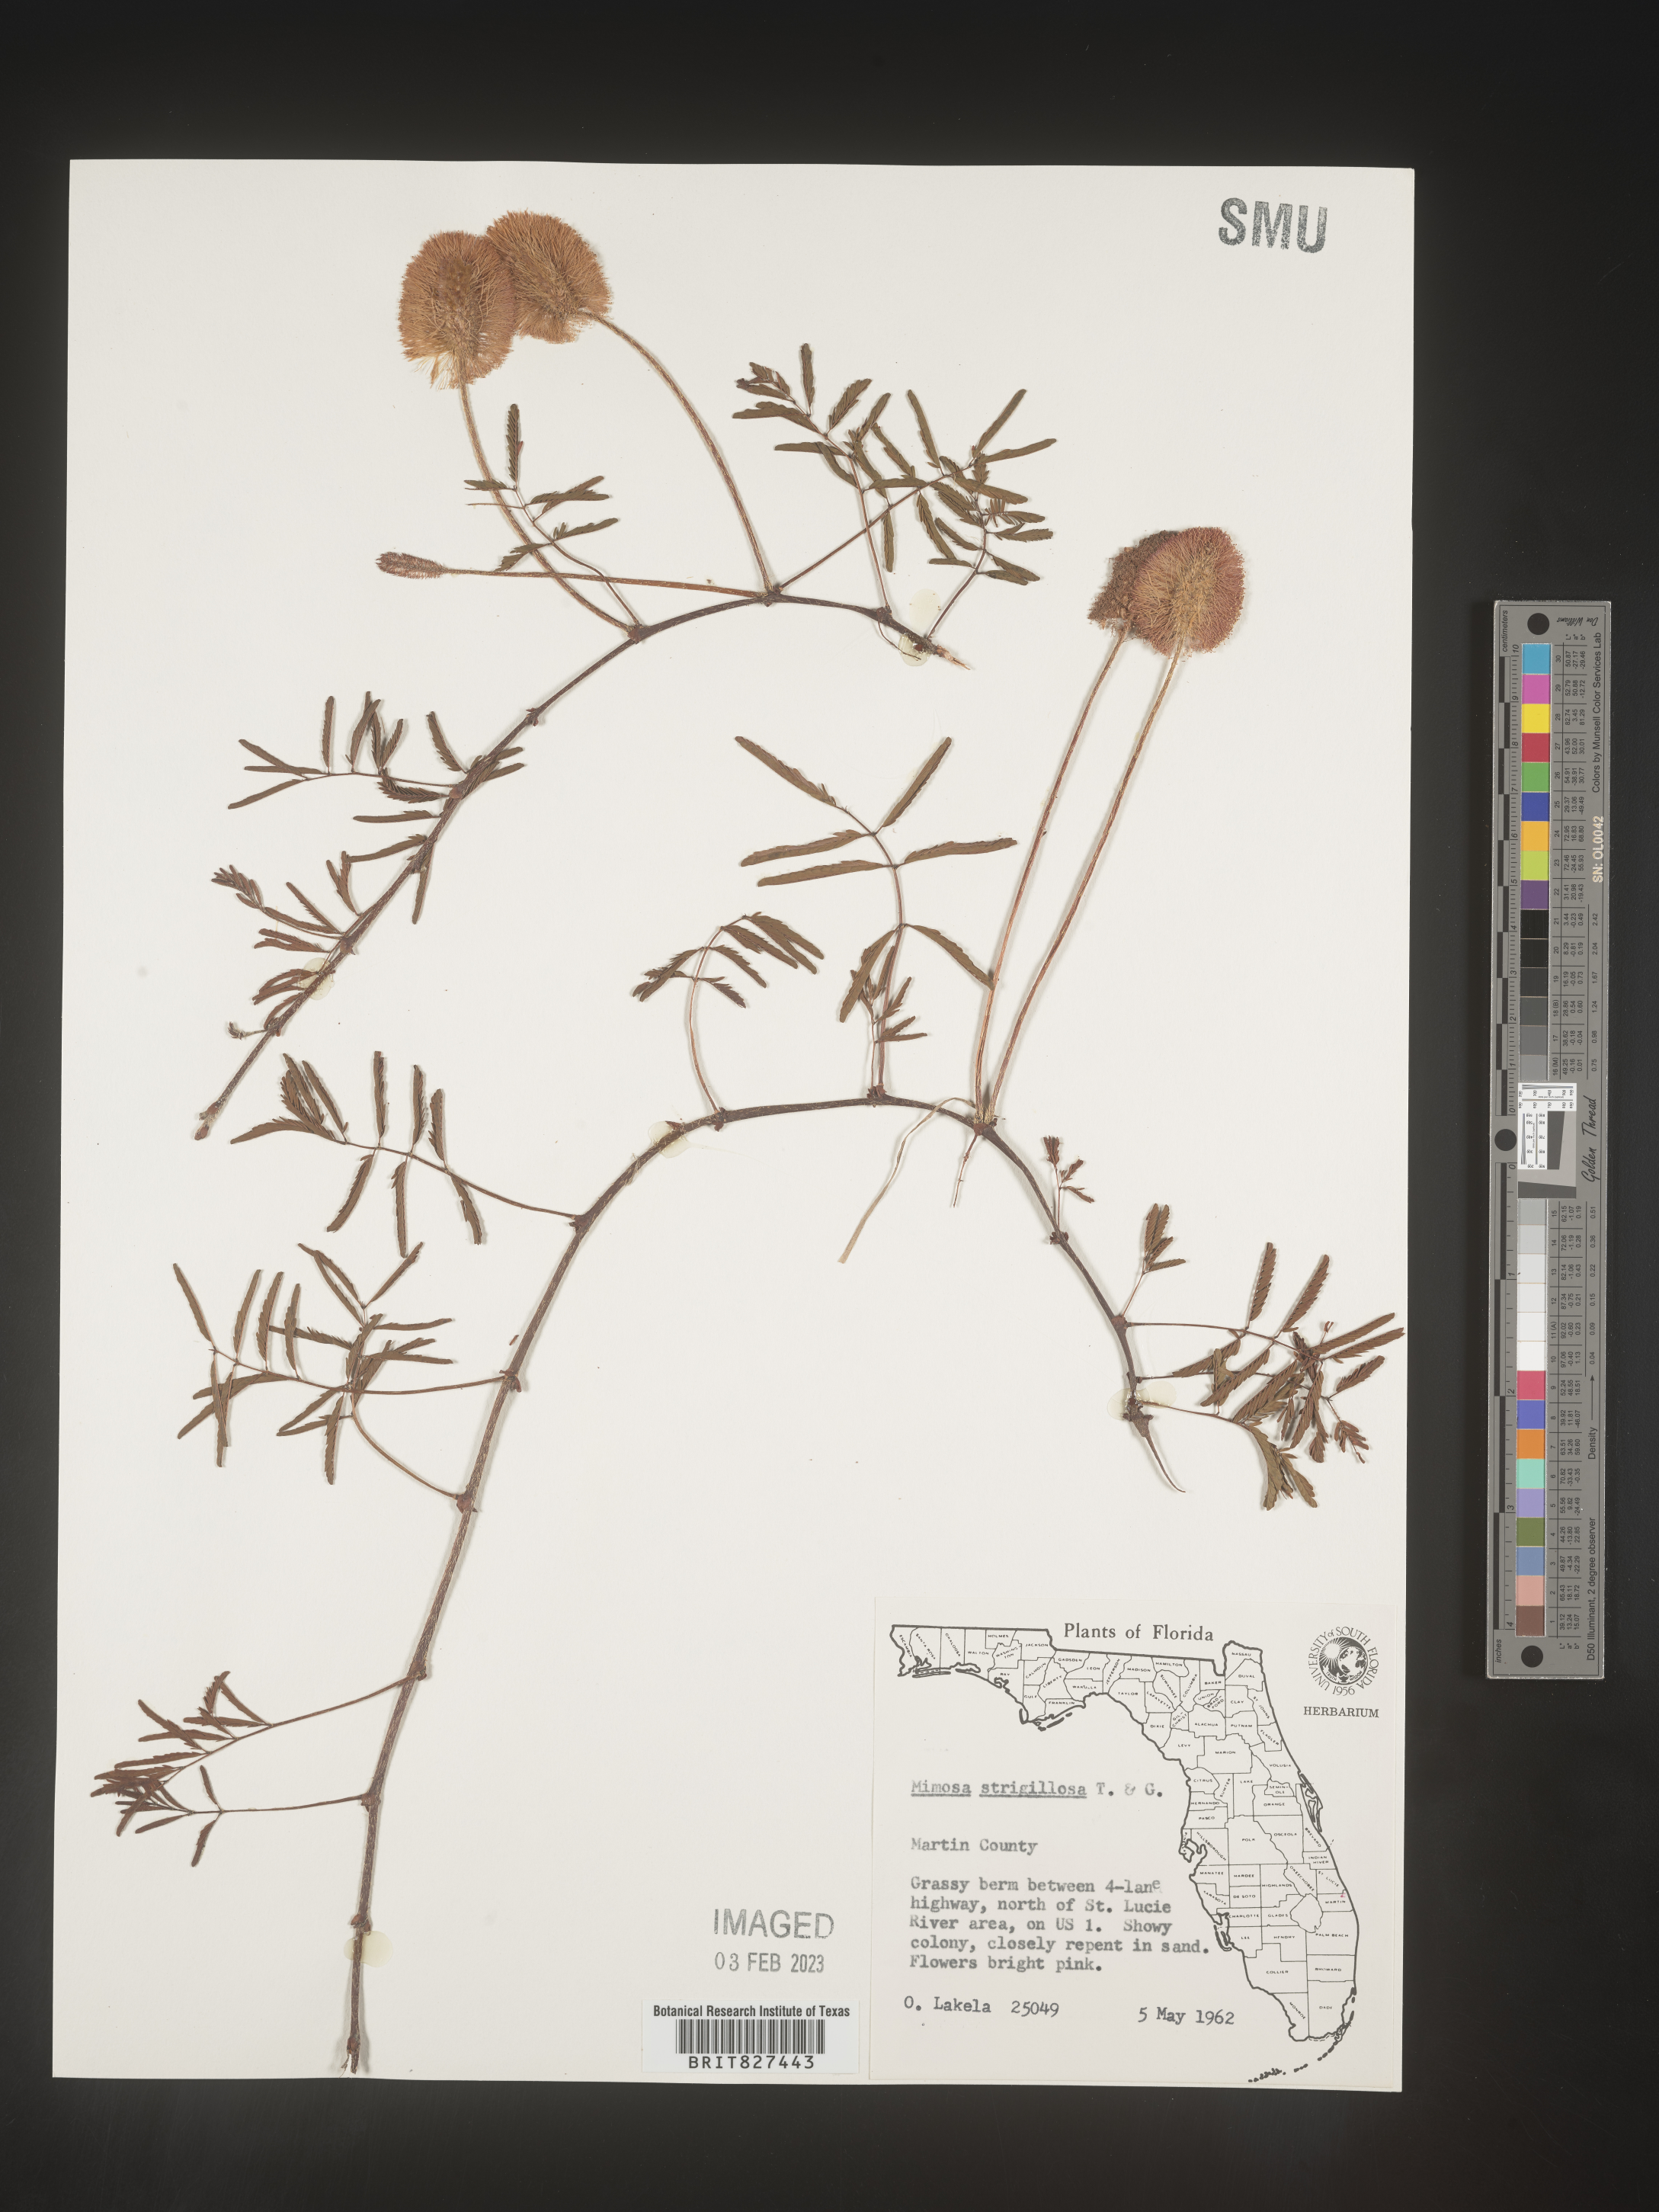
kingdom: Plantae
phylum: Tracheophyta
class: Magnoliopsida
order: Fabales
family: Fabaceae
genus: Mimosa
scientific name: Mimosa strigillosa
